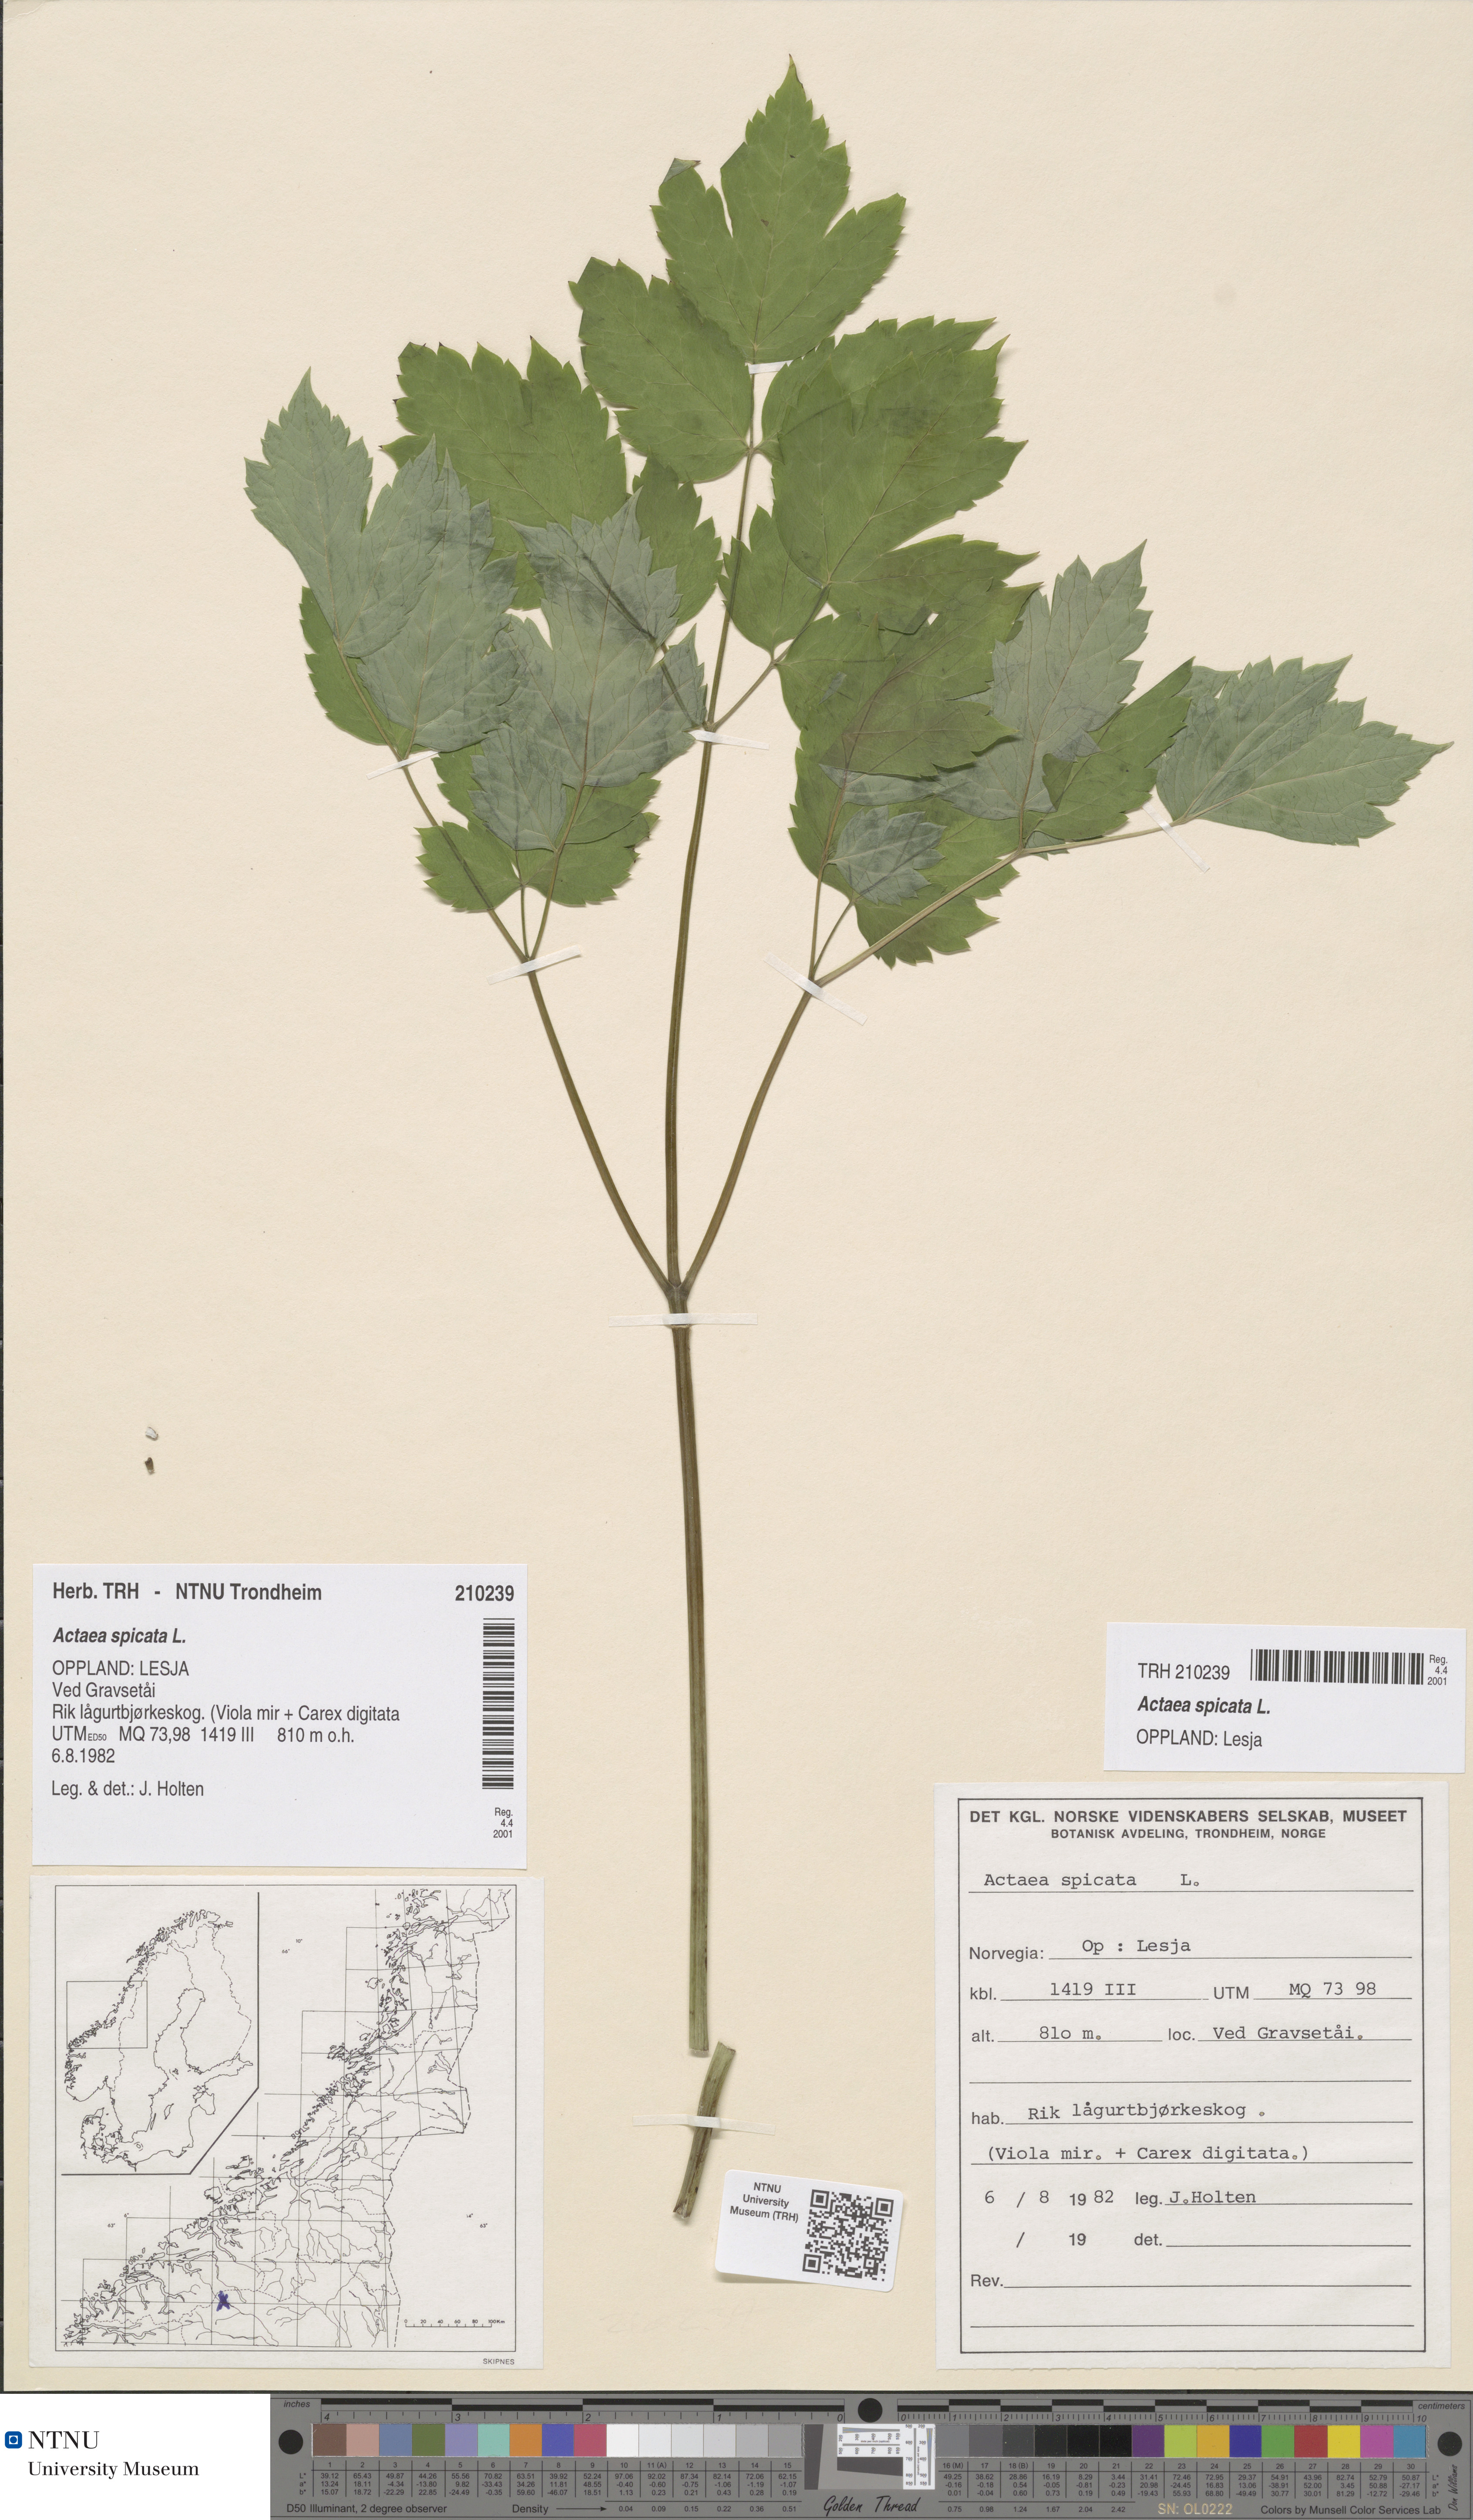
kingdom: Plantae
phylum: Tracheophyta
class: Magnoliopsida
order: Ranunculales
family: Ranunculaceae
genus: Actaea
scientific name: Actaea spicata
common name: Baneberry
